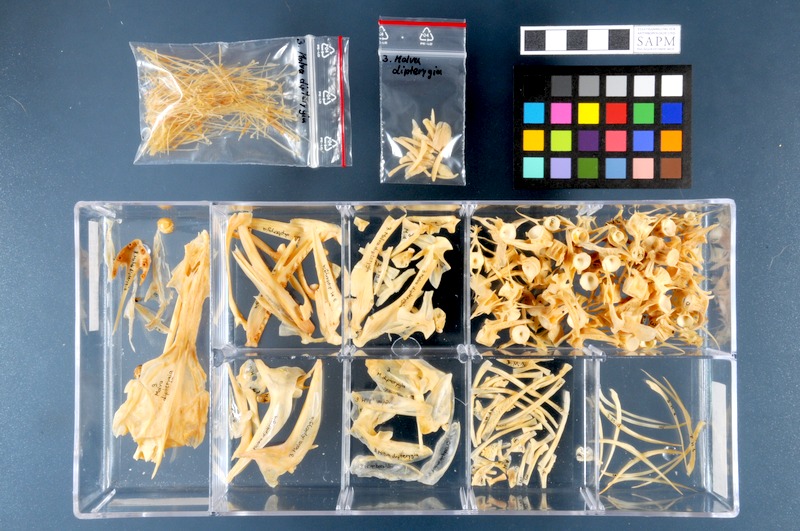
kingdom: Animalia
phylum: Chordata
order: Gadiformes
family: Lotidae
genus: Molva
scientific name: Molva dypterygia
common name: Blue ling
